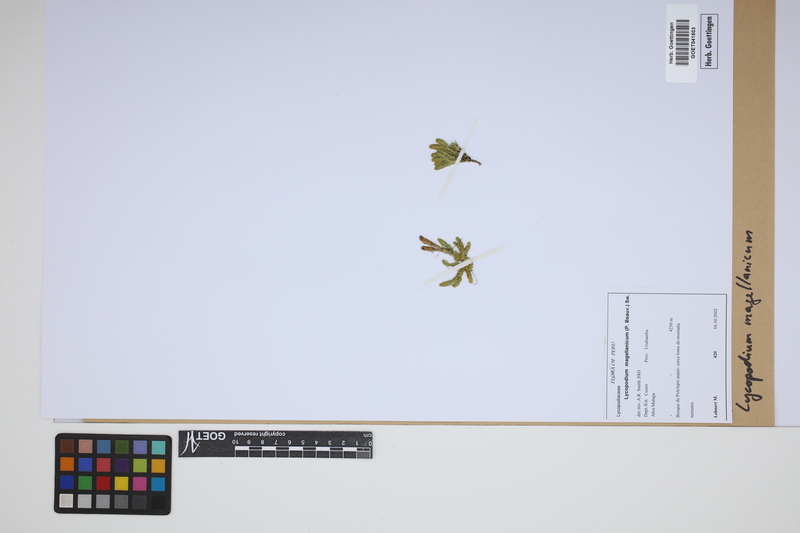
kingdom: Plantae
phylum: Tracheophyta
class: Lycopodiopsida
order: Lycopodiales
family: Lycopodiaceae
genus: Austrolycopodium
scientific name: Austrolycopodium magellanicum
